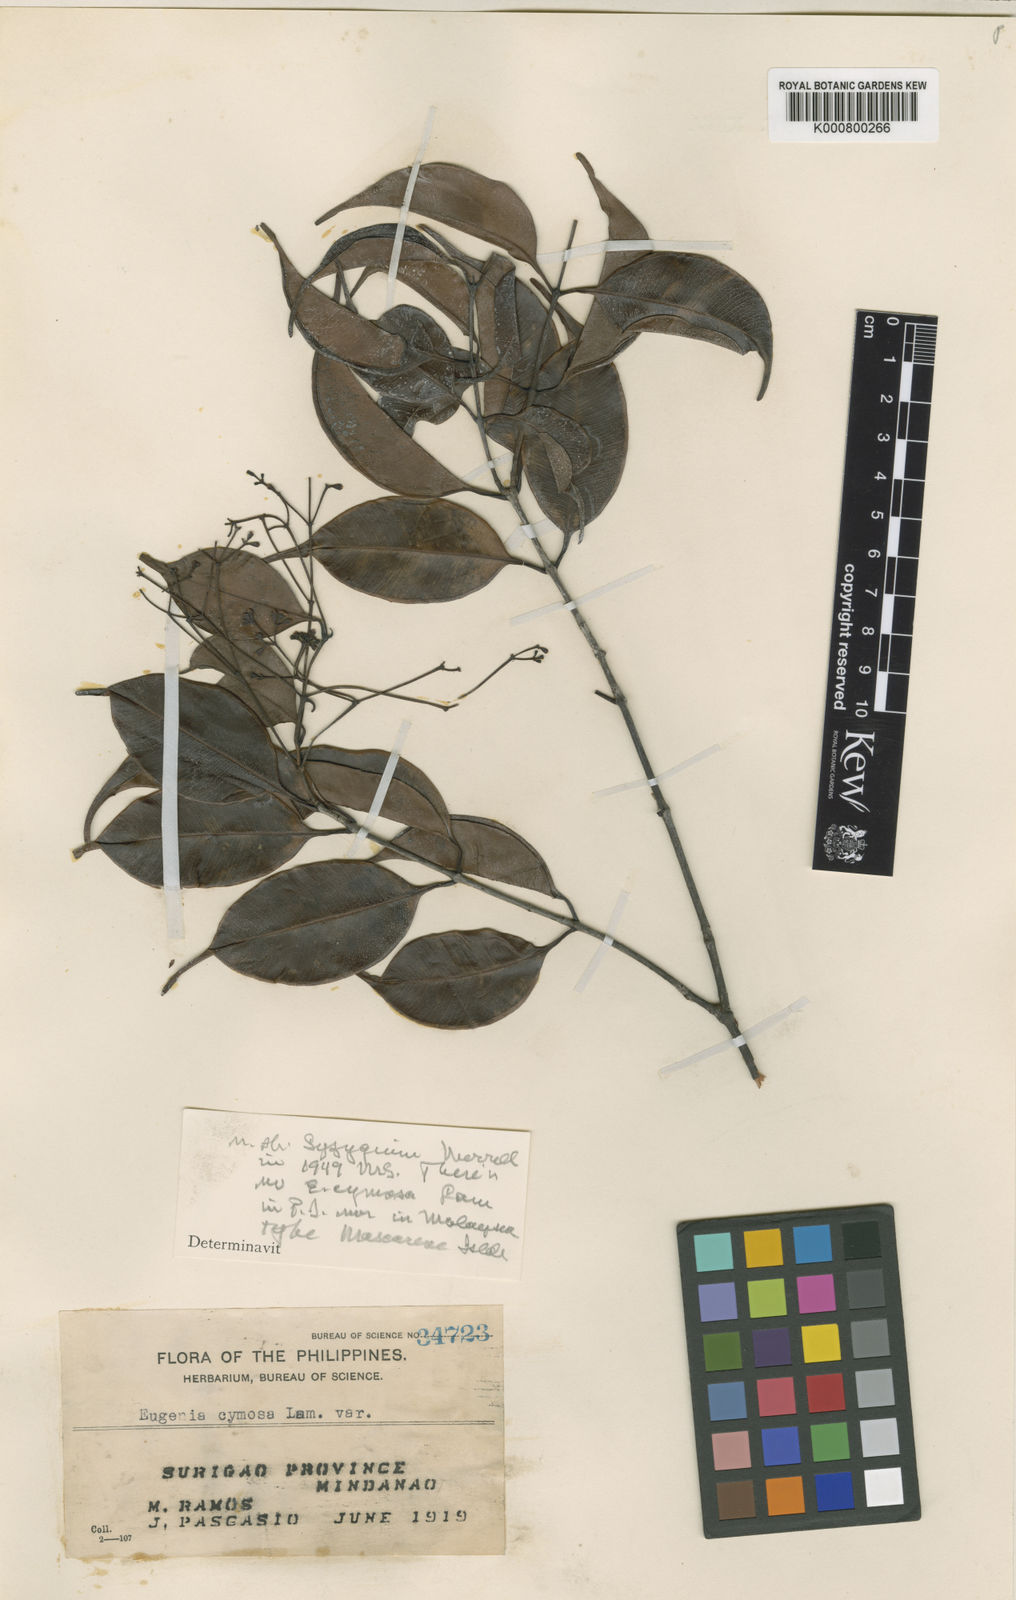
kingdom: Plantae
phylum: Tracheophyta
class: Magnoliopsida
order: Myrtales
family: Myrtaceae
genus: Syzygium
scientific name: Syzygium filipes
